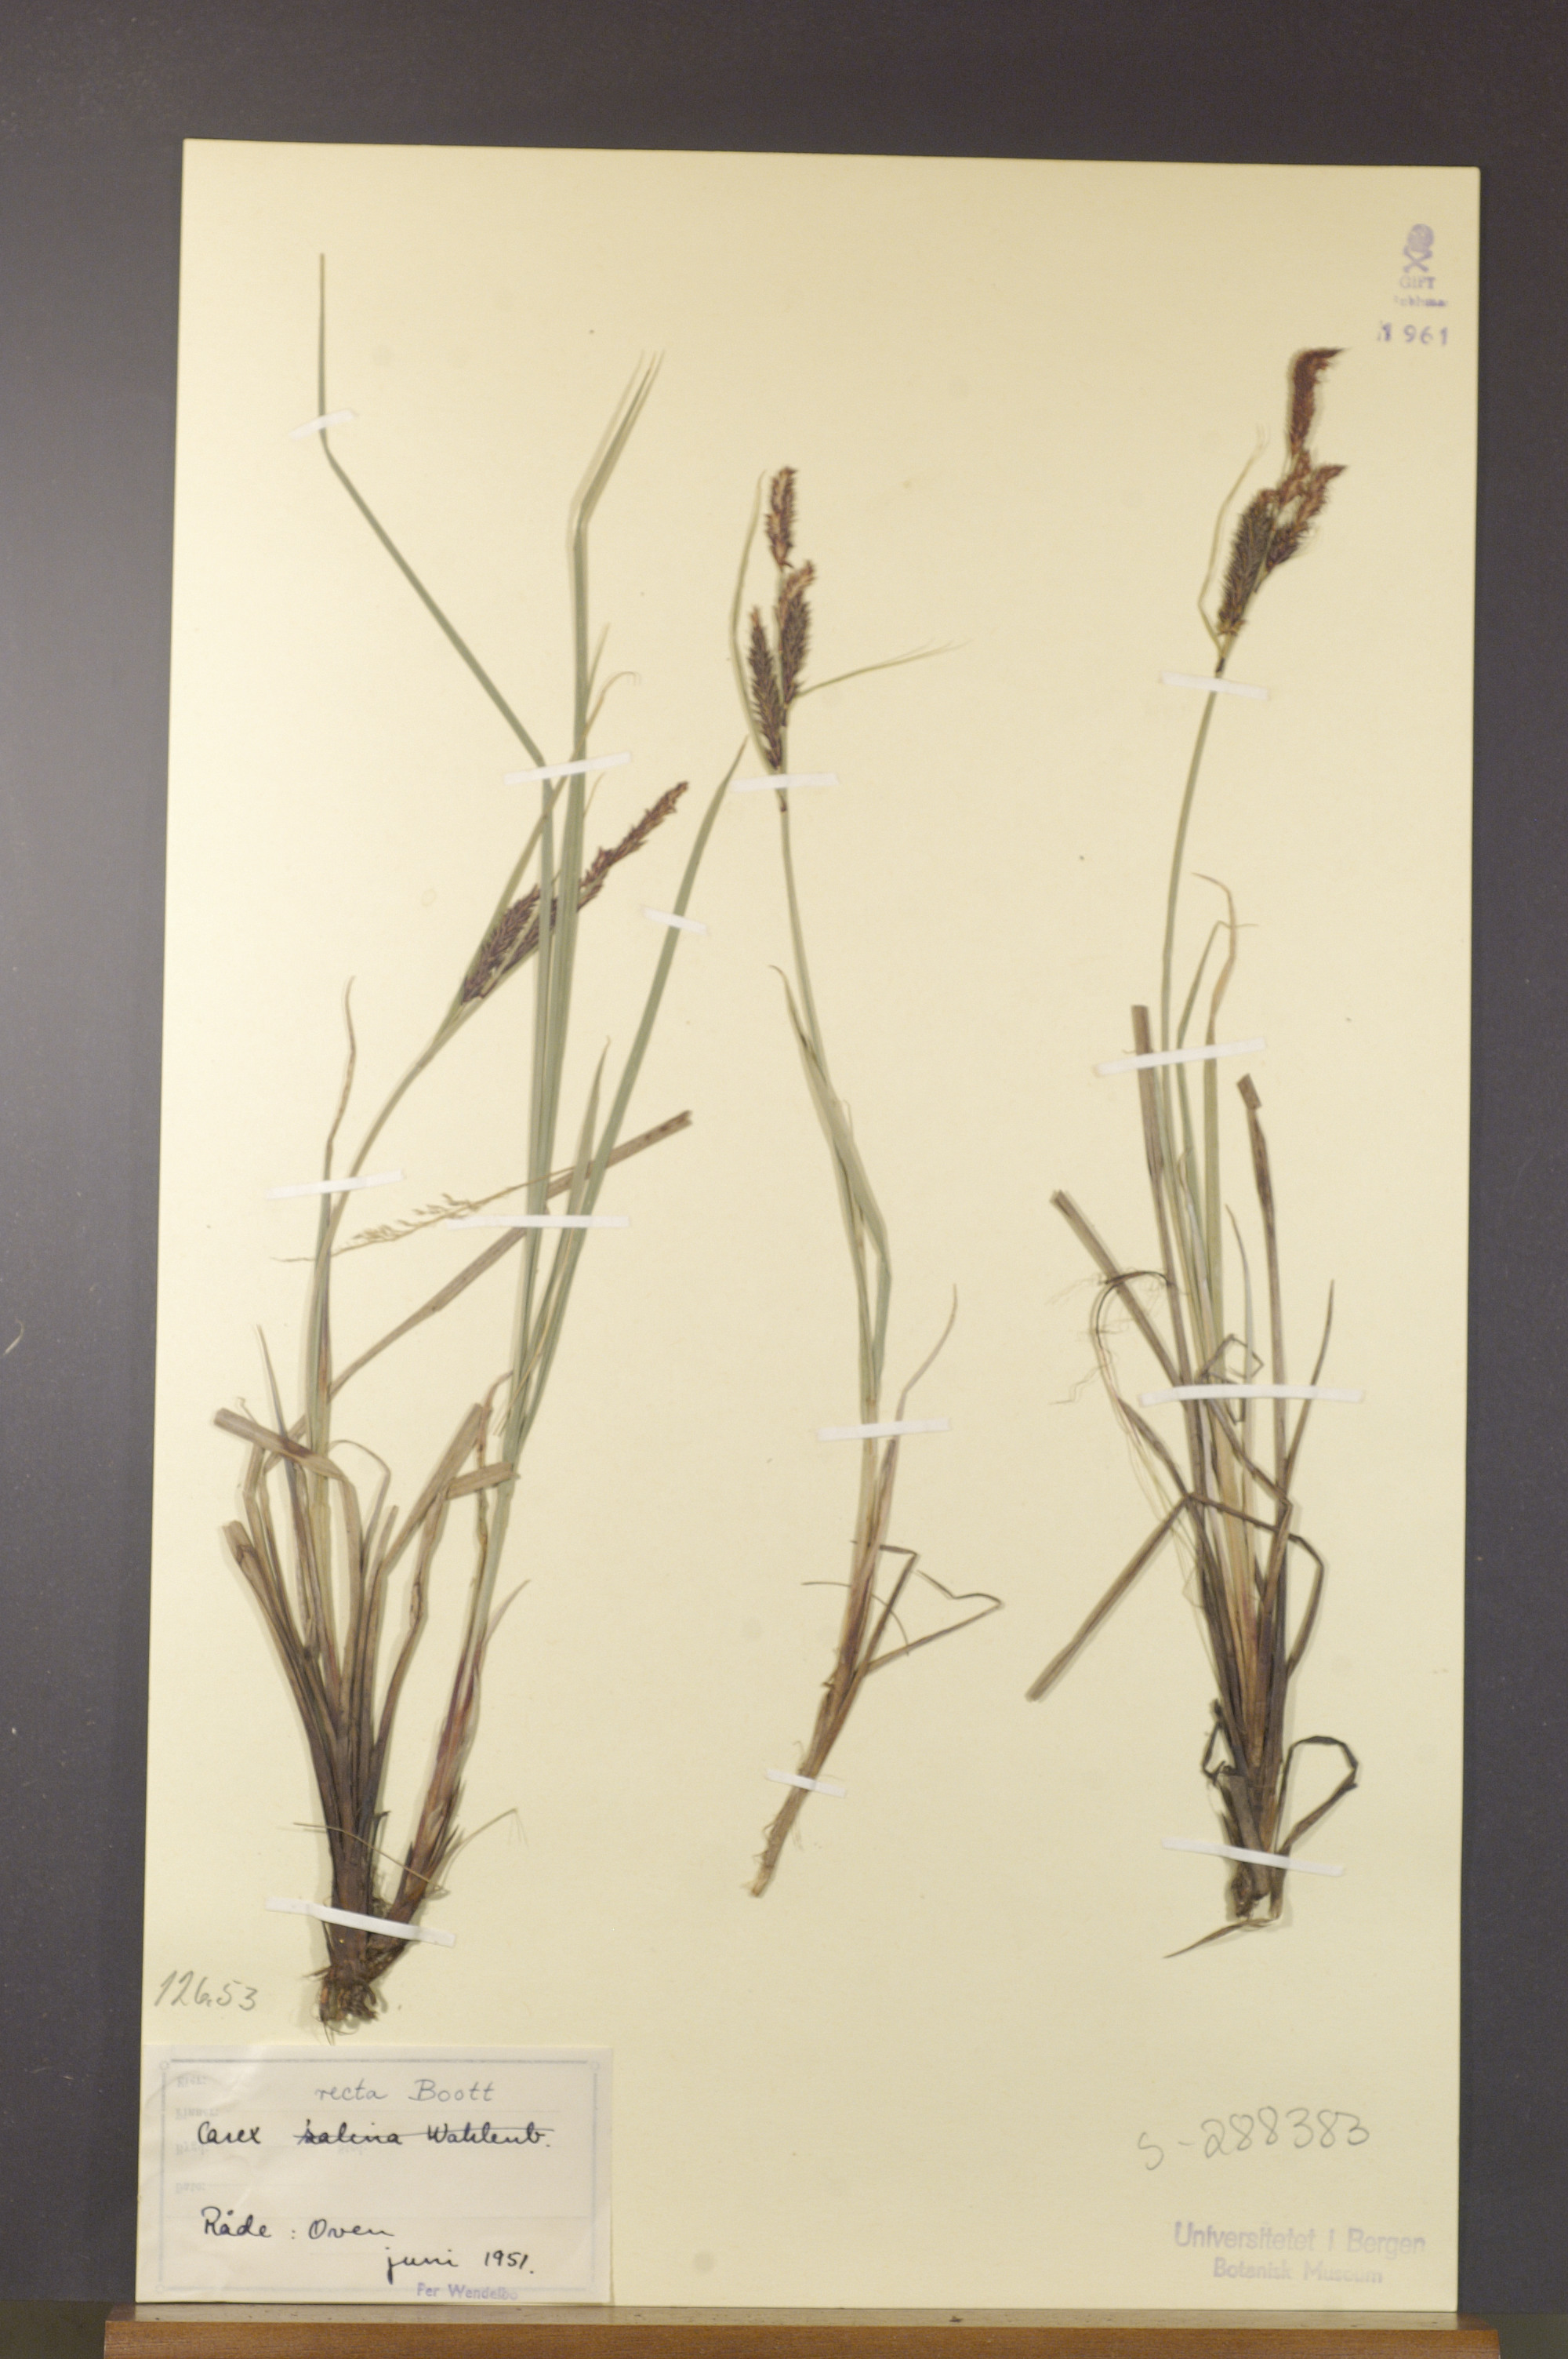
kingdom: Plantae
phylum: Tracheophyta
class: Liliopsida
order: Poales
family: Cyperaceae
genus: Carex
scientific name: Carex recta
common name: Estuarine sedge
